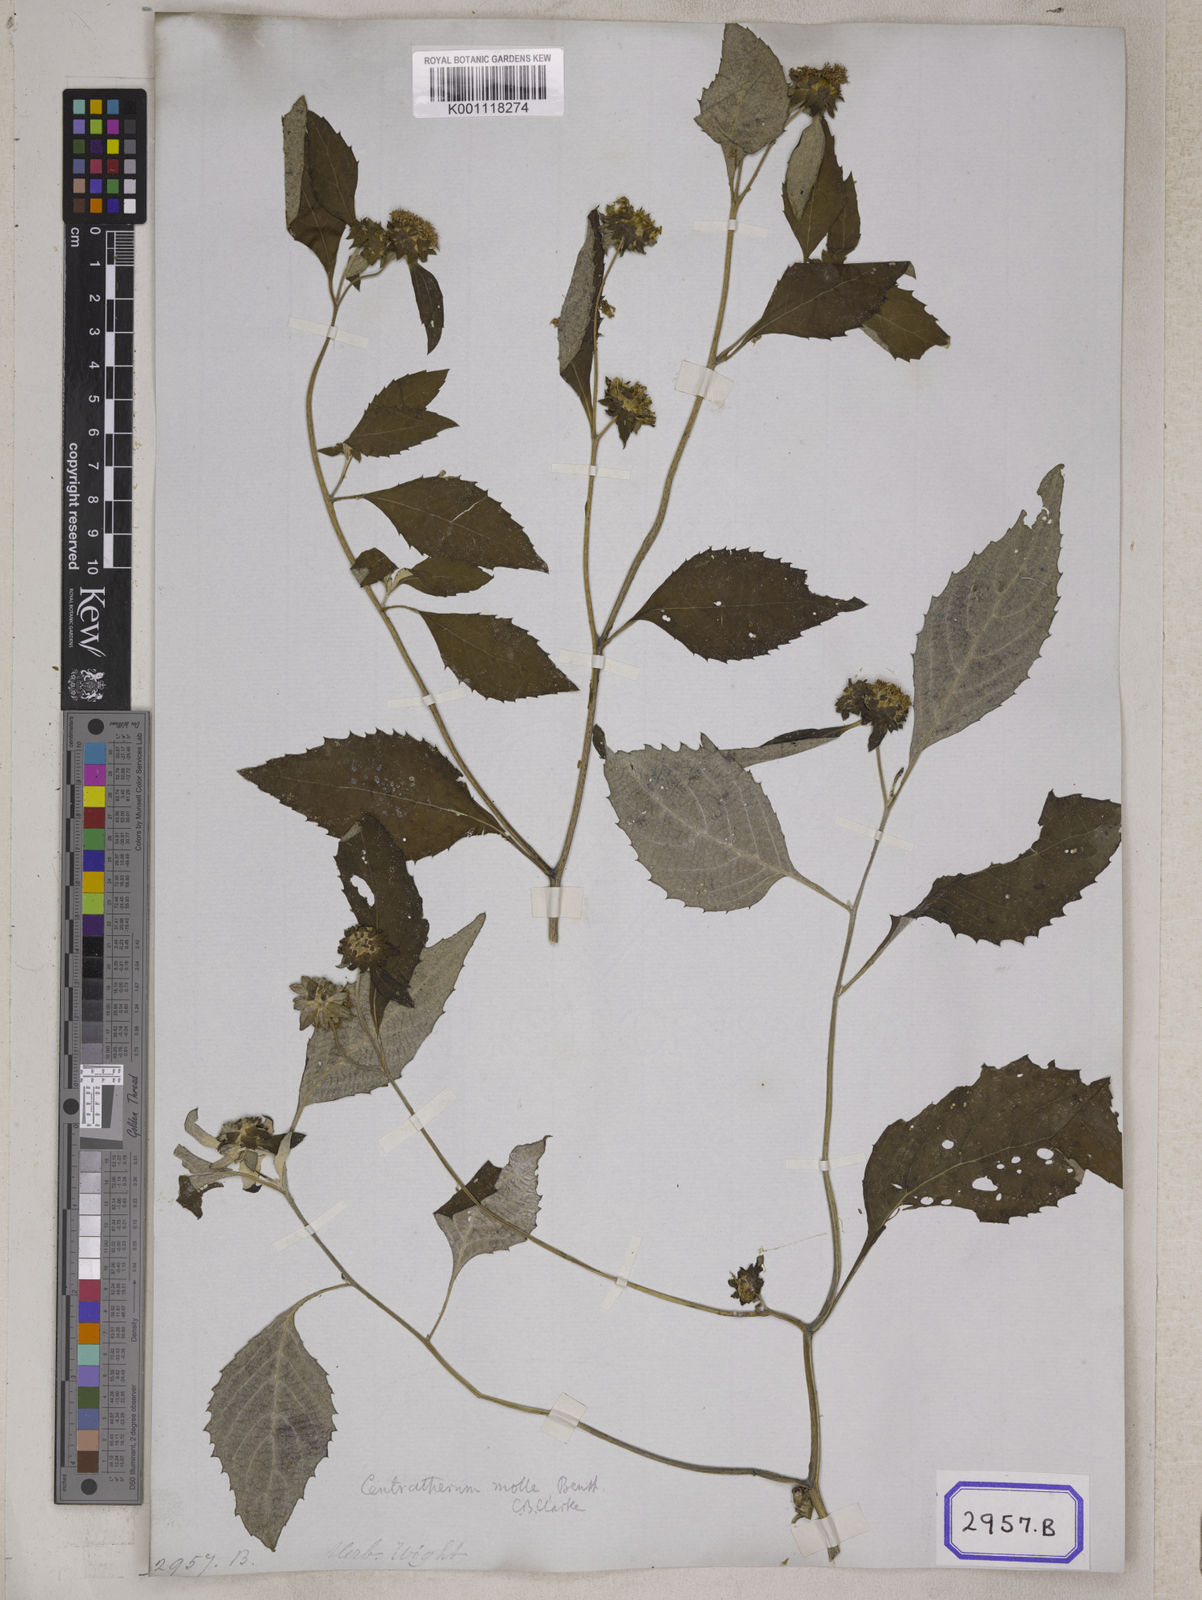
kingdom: Plantae
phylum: Tracheophyta
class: Magnoliopsida
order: Asterales
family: Asteraceae
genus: Phyllocephalum
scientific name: Phyllocephalum scabridum
